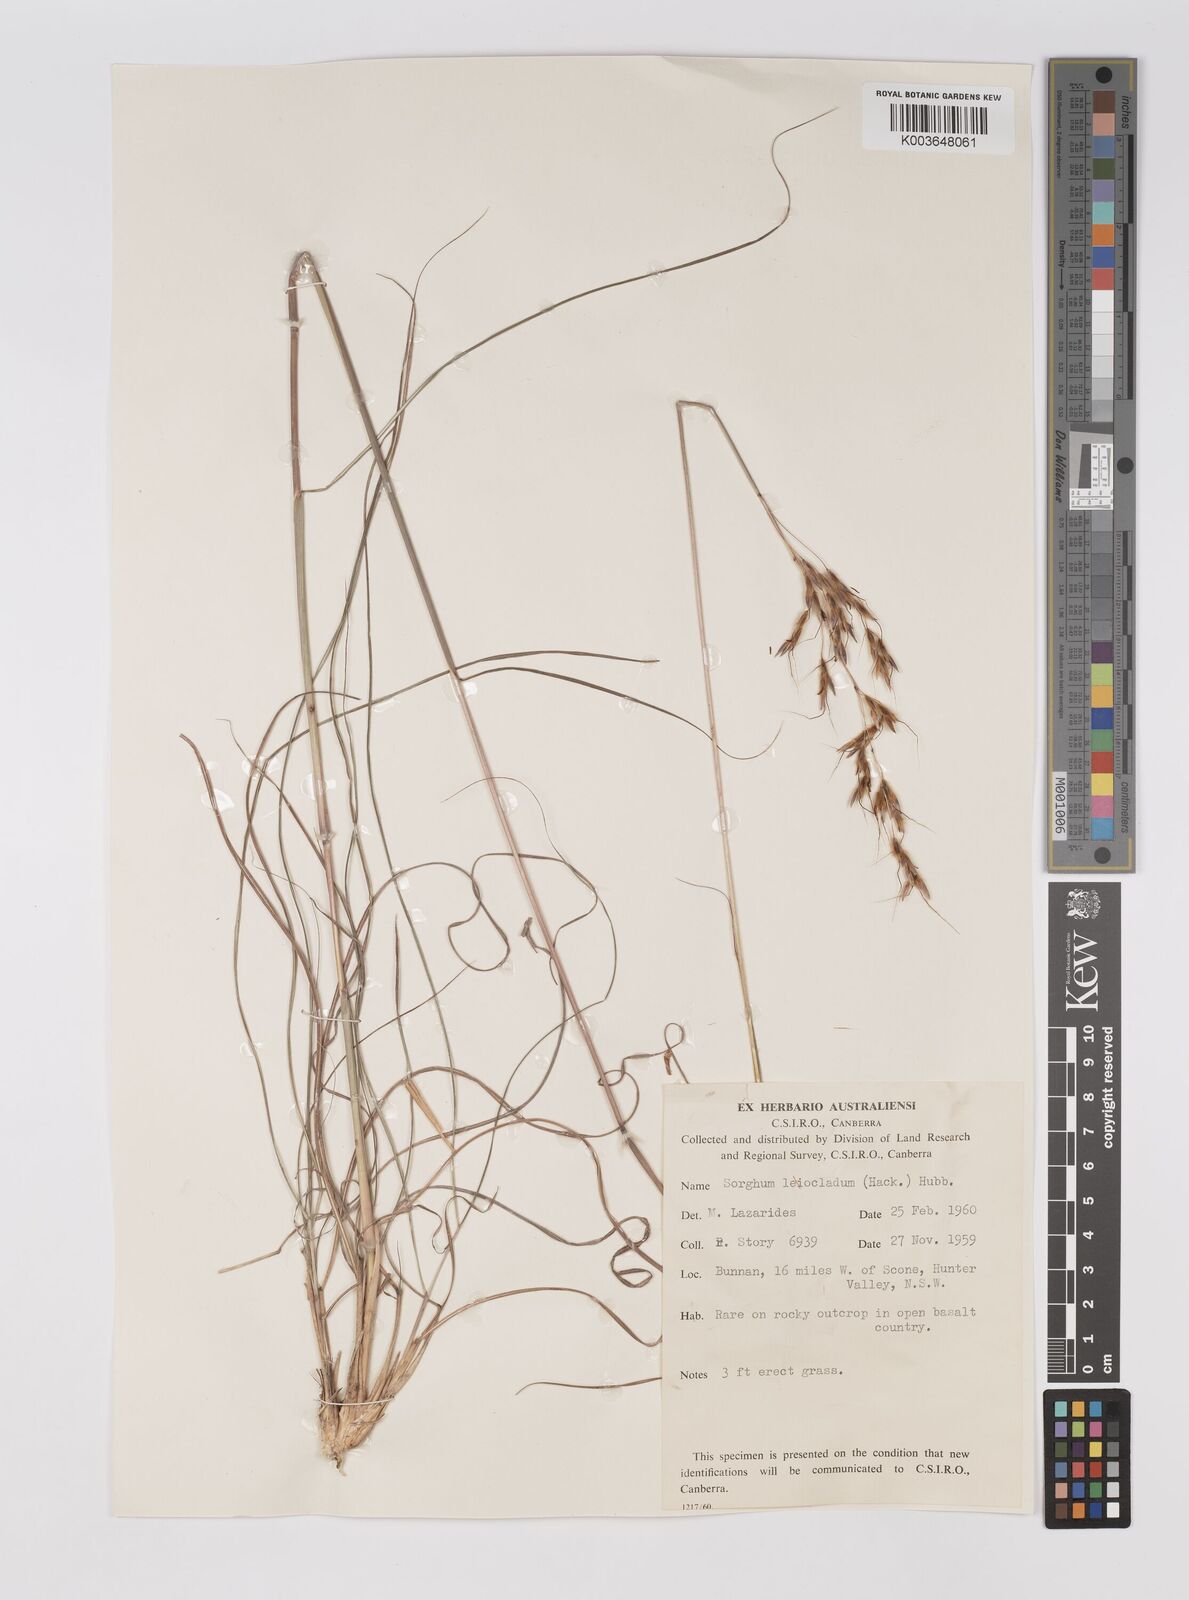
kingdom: Plantae
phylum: Tracheophyta
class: Liliopsida
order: Poales
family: Poaceae
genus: Sarga
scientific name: Sarga leioclada
